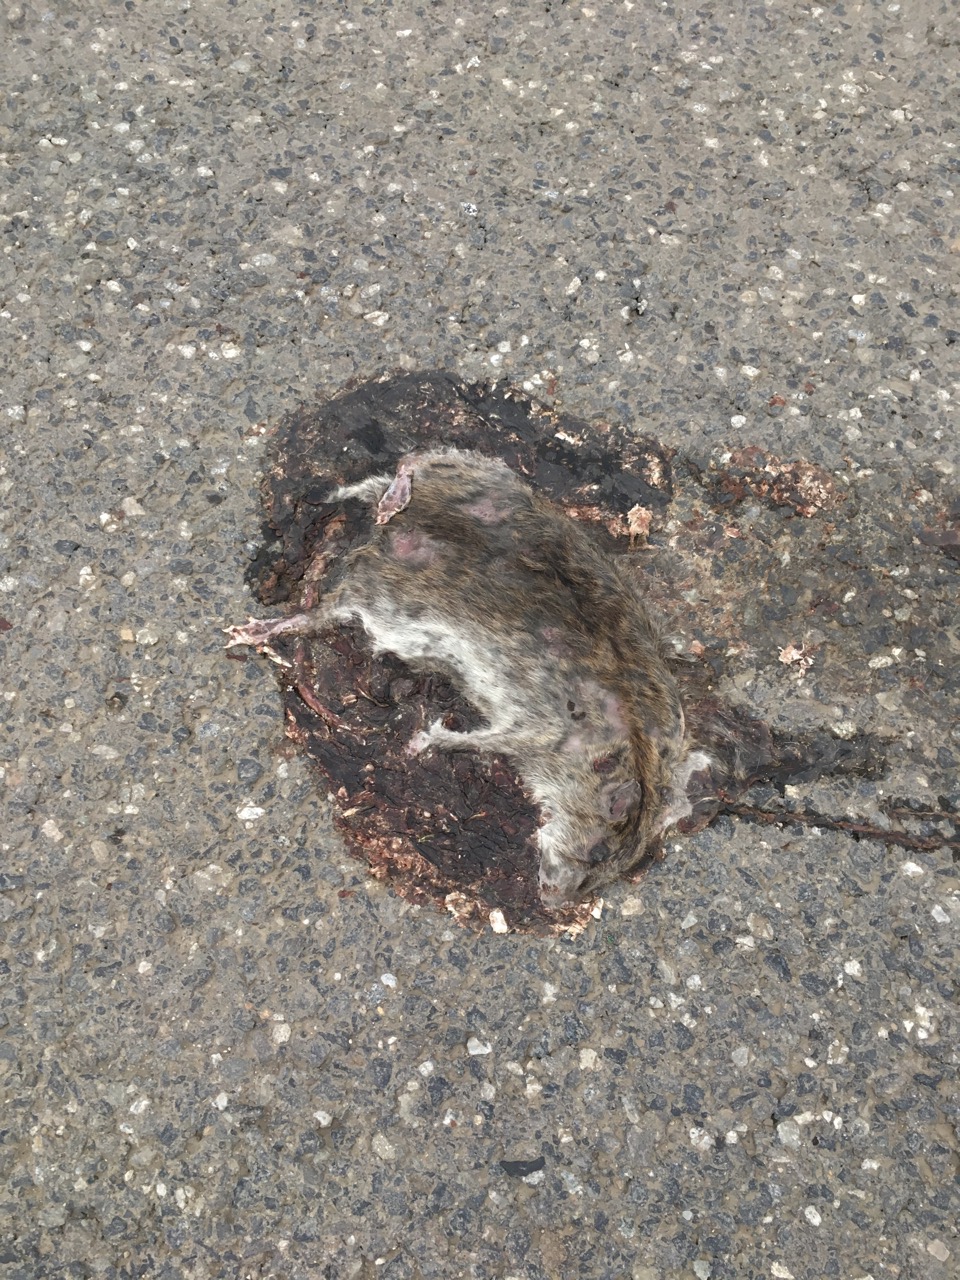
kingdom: Animalia
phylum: Chordata
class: Mammalia
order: Rodentia
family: Muridae
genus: Rattus
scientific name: Rattus norvegicus
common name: Brown rat
